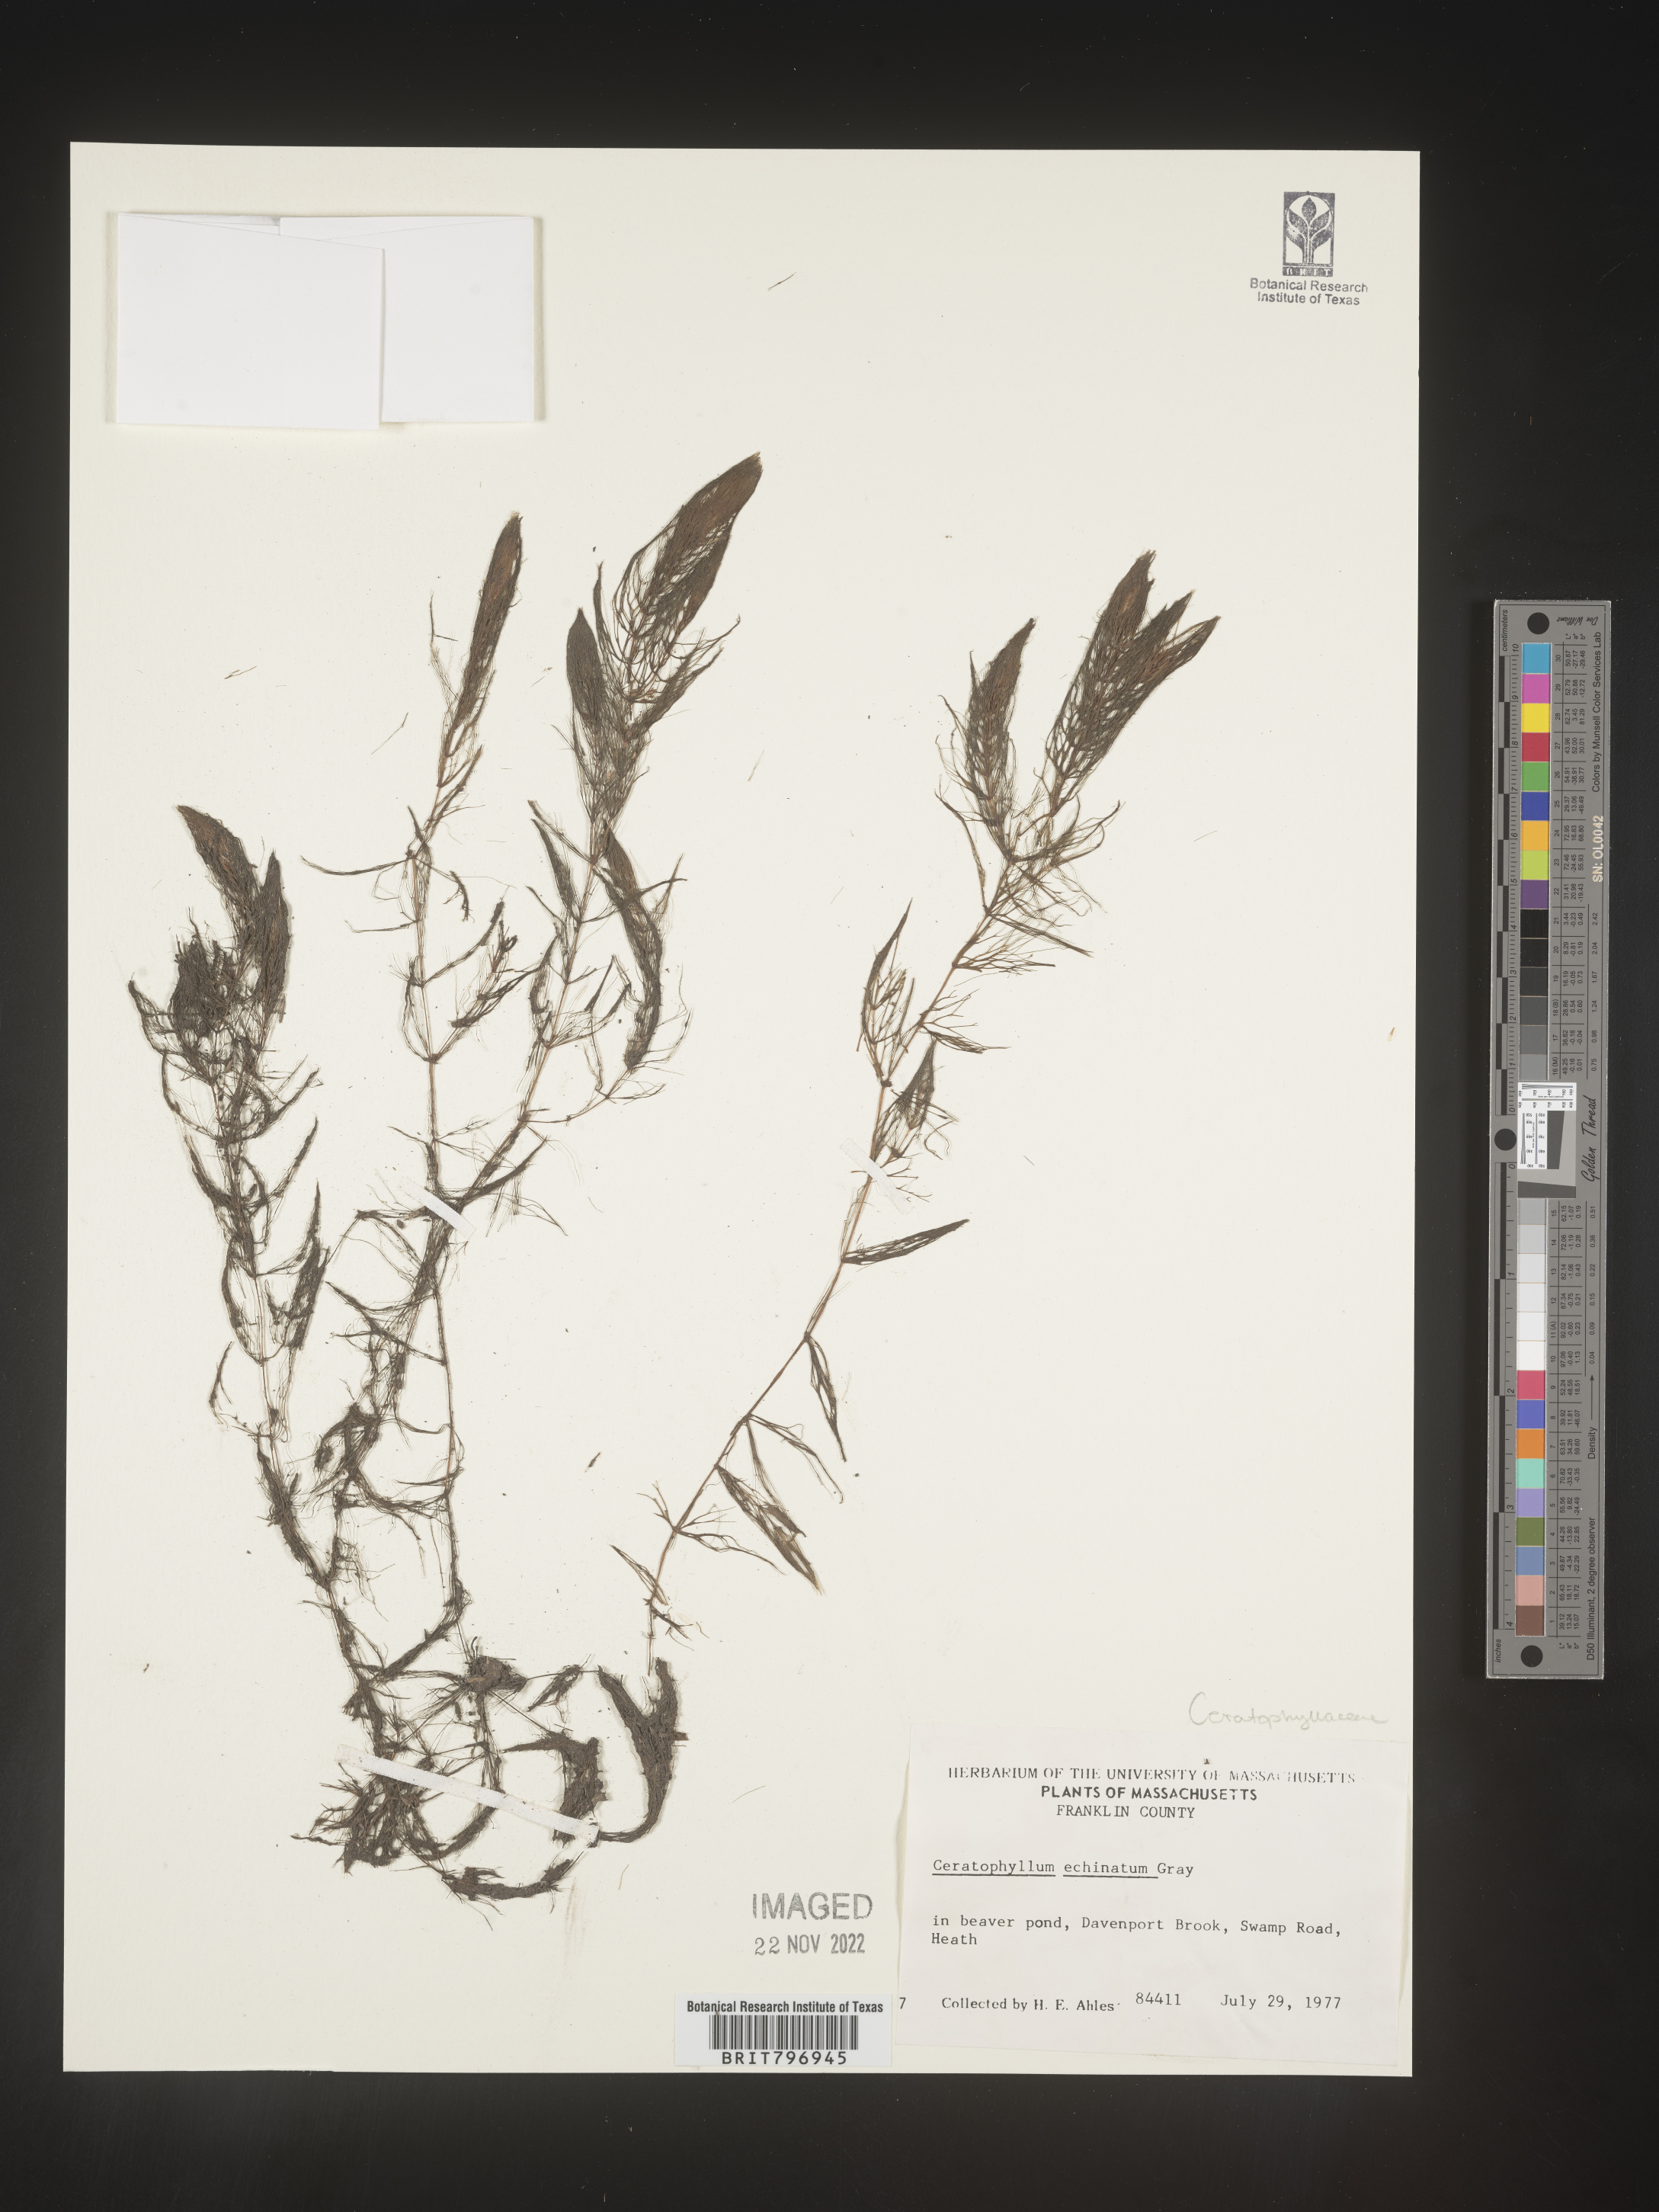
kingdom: Plantae
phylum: Tracheophyta
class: Magnoliopsida
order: Ceratophyllales
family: Ceratophyllaceae
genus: Ceratophyllum
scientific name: Ceratophyllum echinatum
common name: Prickly coontail
